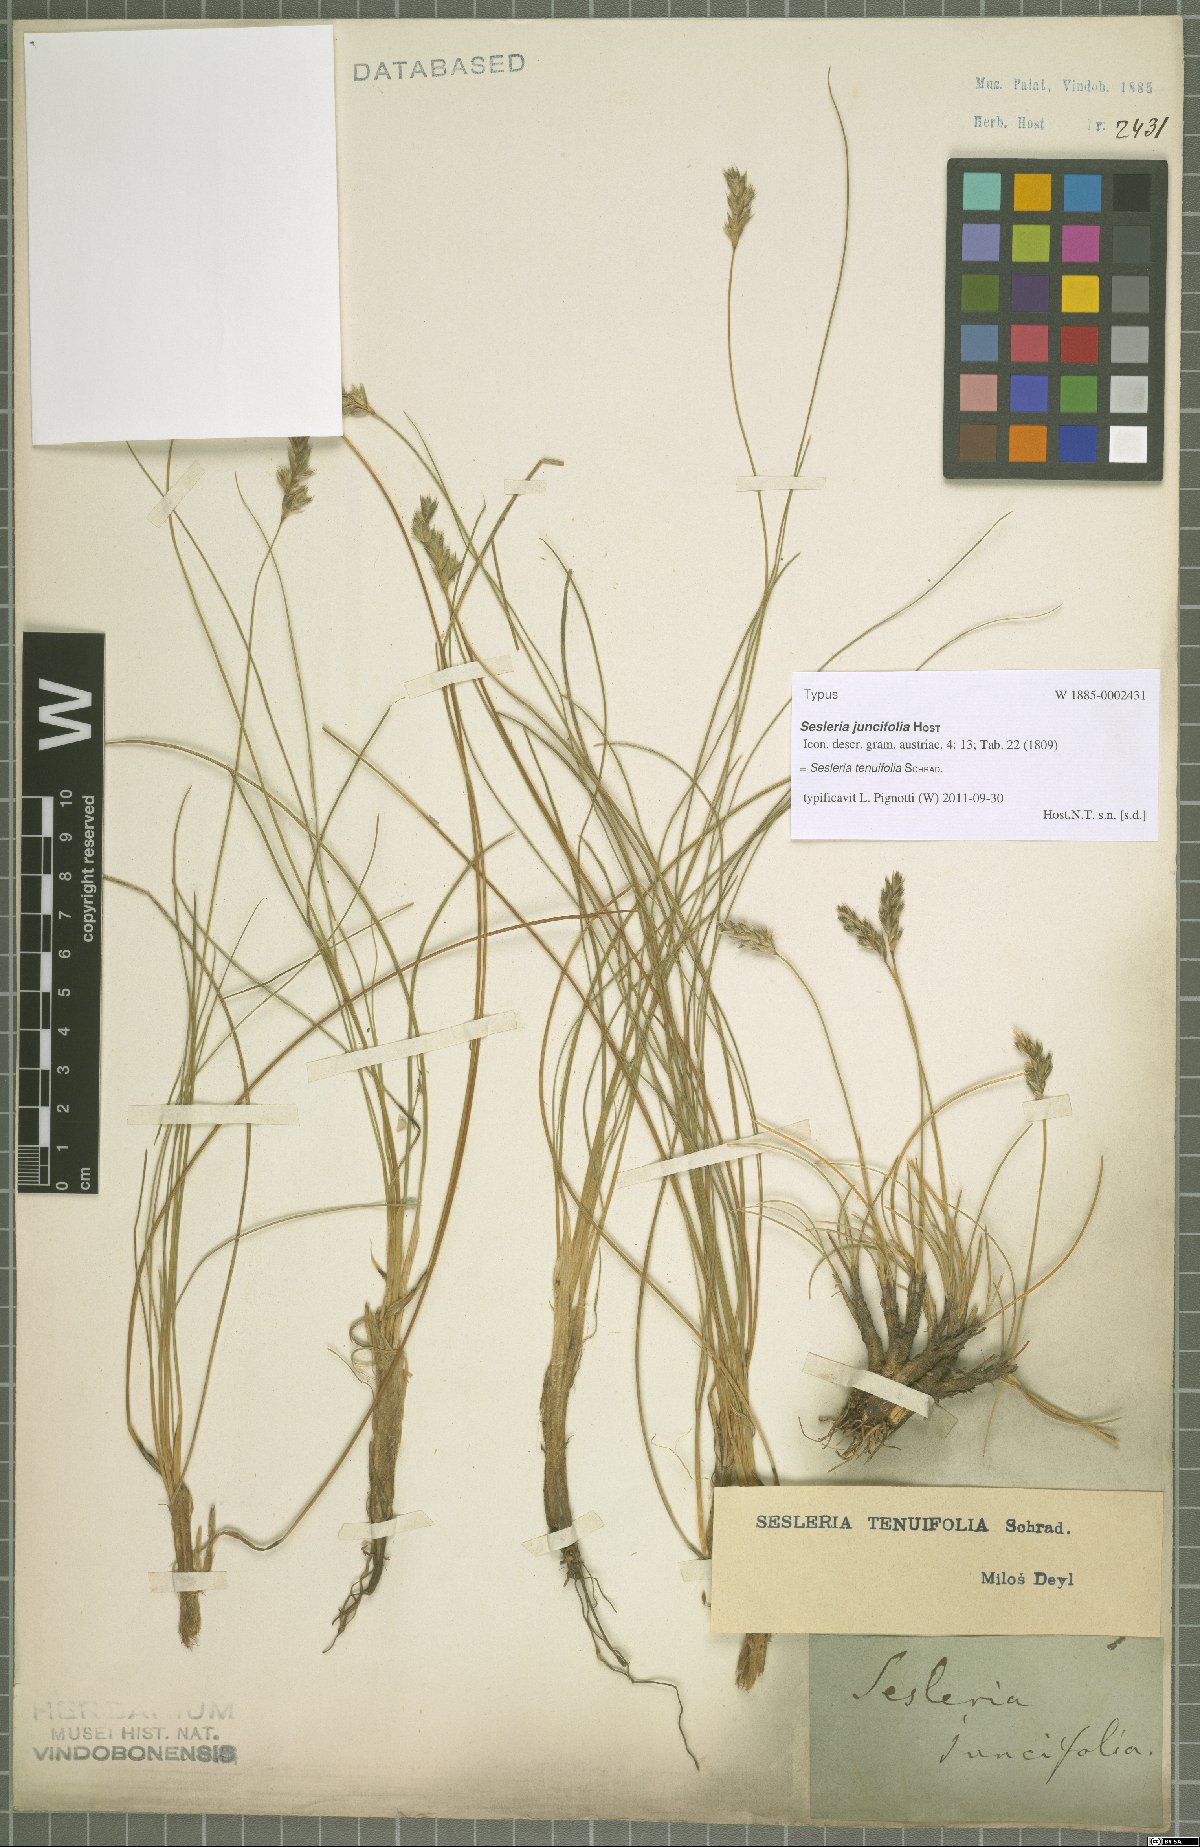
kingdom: Plantae
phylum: Tracheophyta
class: Liliopsida
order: Poales
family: Poaceae
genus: Sesleria
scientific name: Sesleria juncifolia
